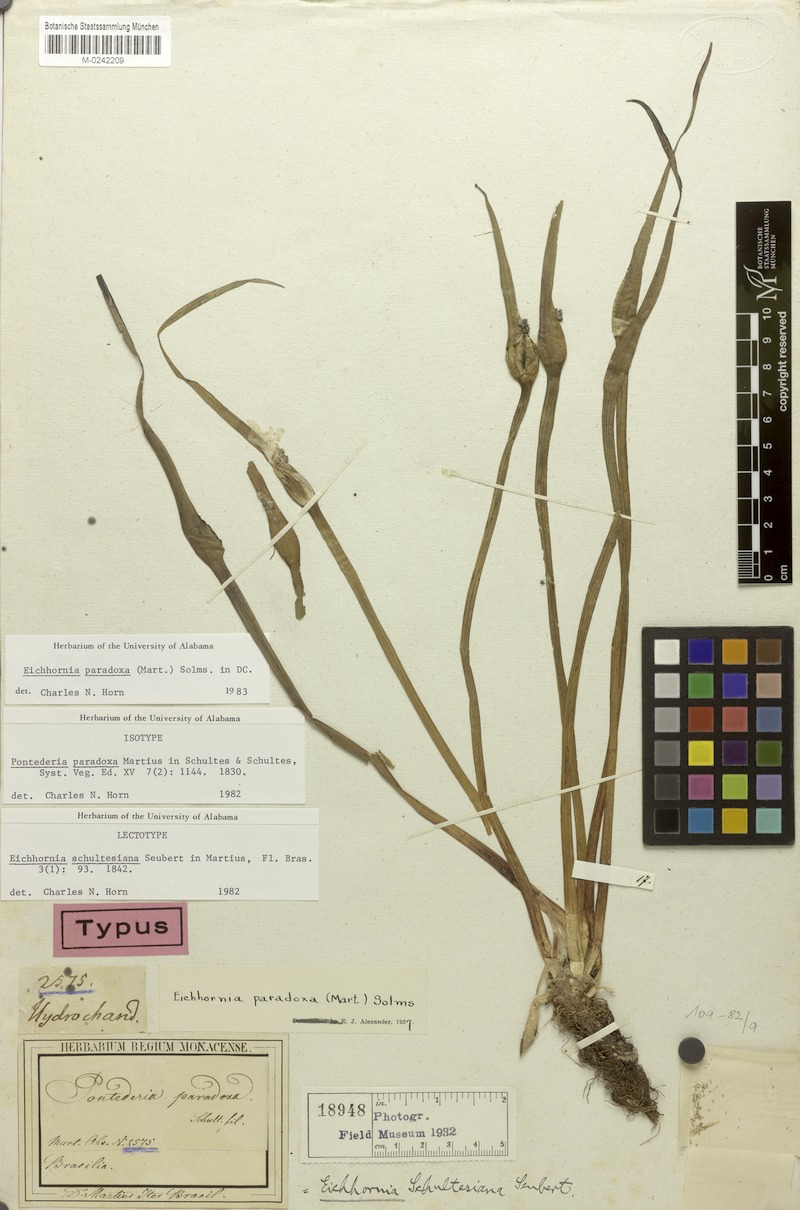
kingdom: Plantae
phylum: Tracheophyta
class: Liliopsida
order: Commelinales
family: Pontederiaceae
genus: Pontederia
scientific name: Pontederia paradoxa
